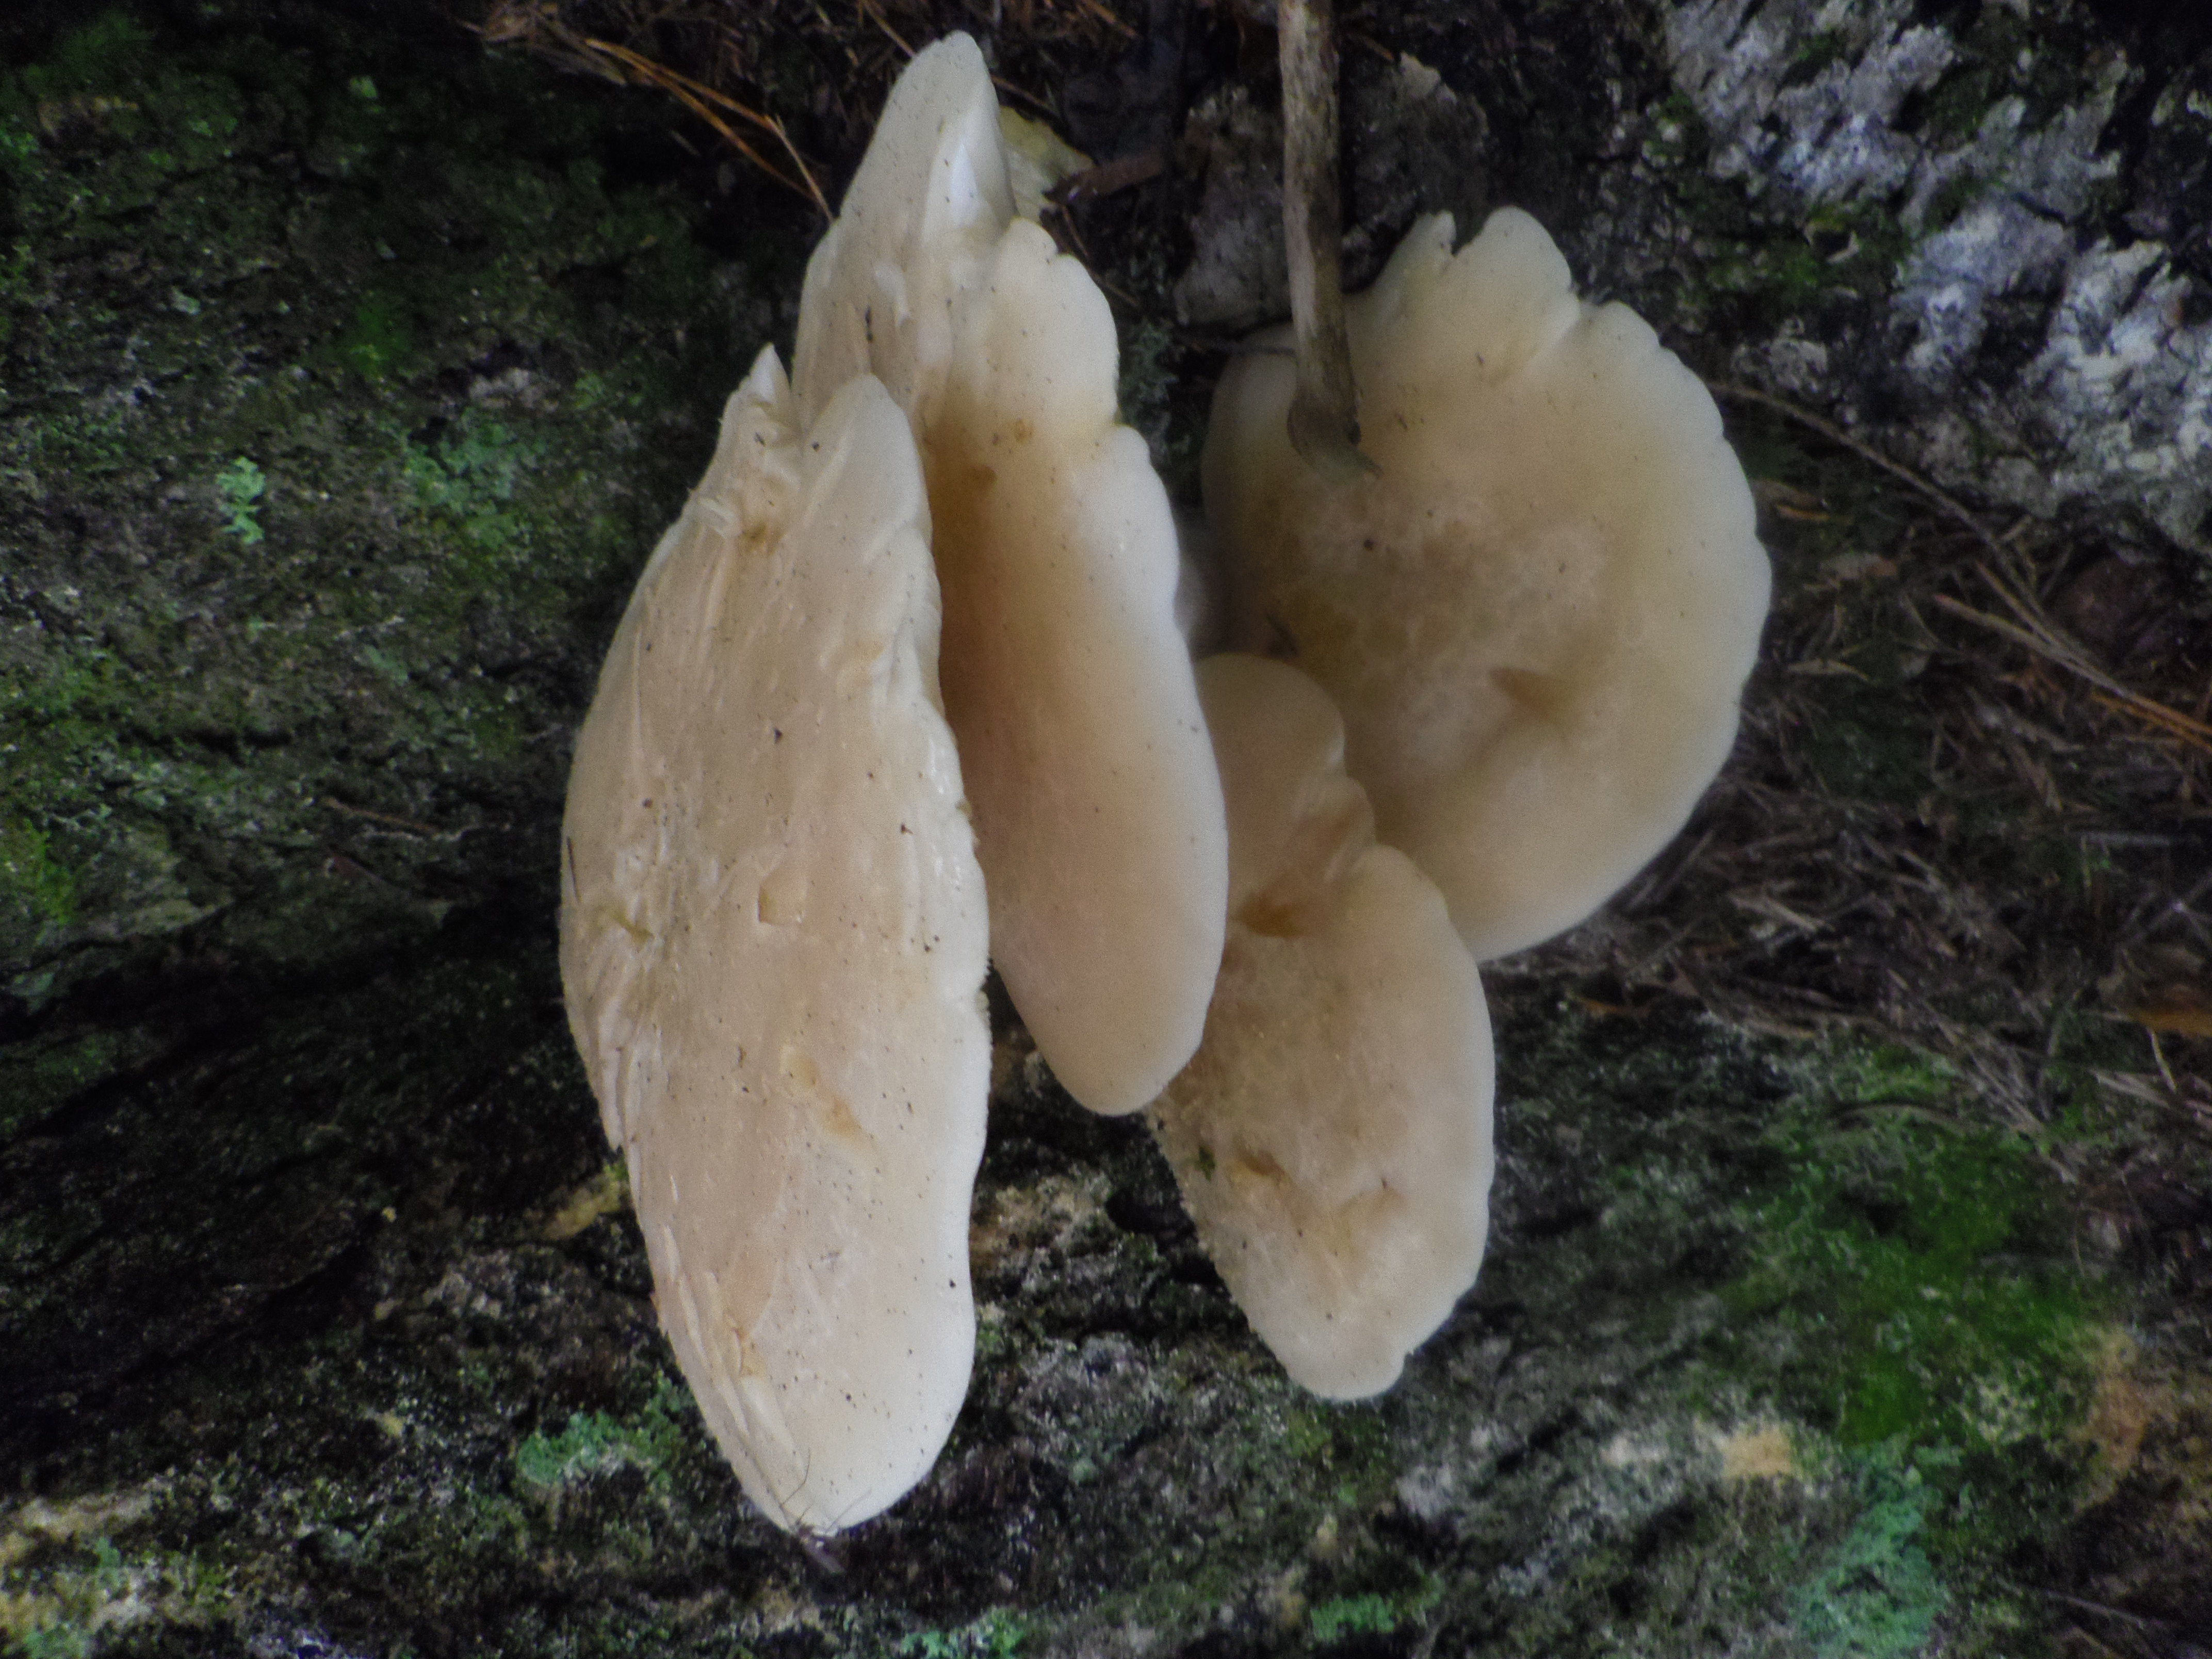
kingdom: Fungi
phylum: Basidiomycota
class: Agaricomycetes
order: Agaricales
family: Lyophyllaceae
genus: Hypsizygus
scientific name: Hypsizygus tessulatus
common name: Beech mushroom
